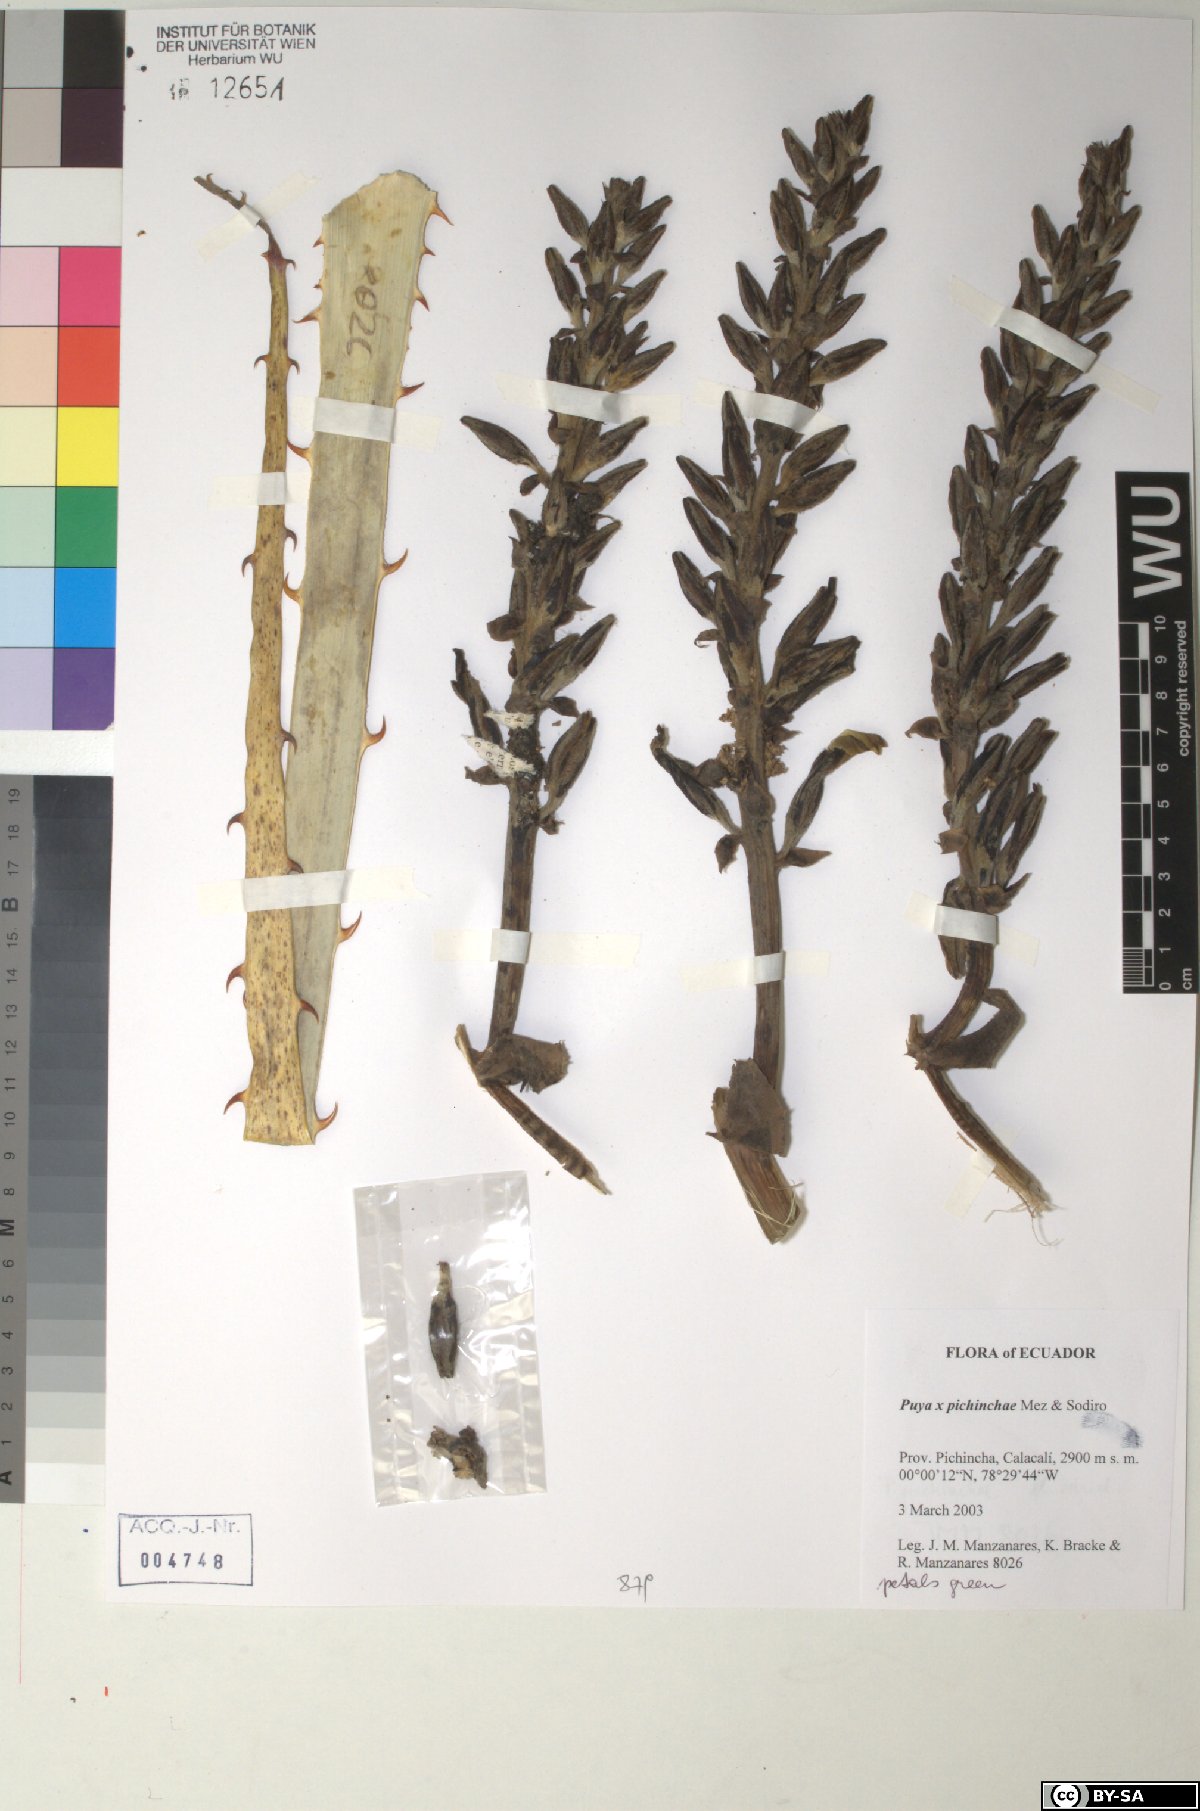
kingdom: Plantae
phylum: Tracheophyta
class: Liliopsida
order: Poales
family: Bromeliaceae
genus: Puya
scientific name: Puya pichinchae
